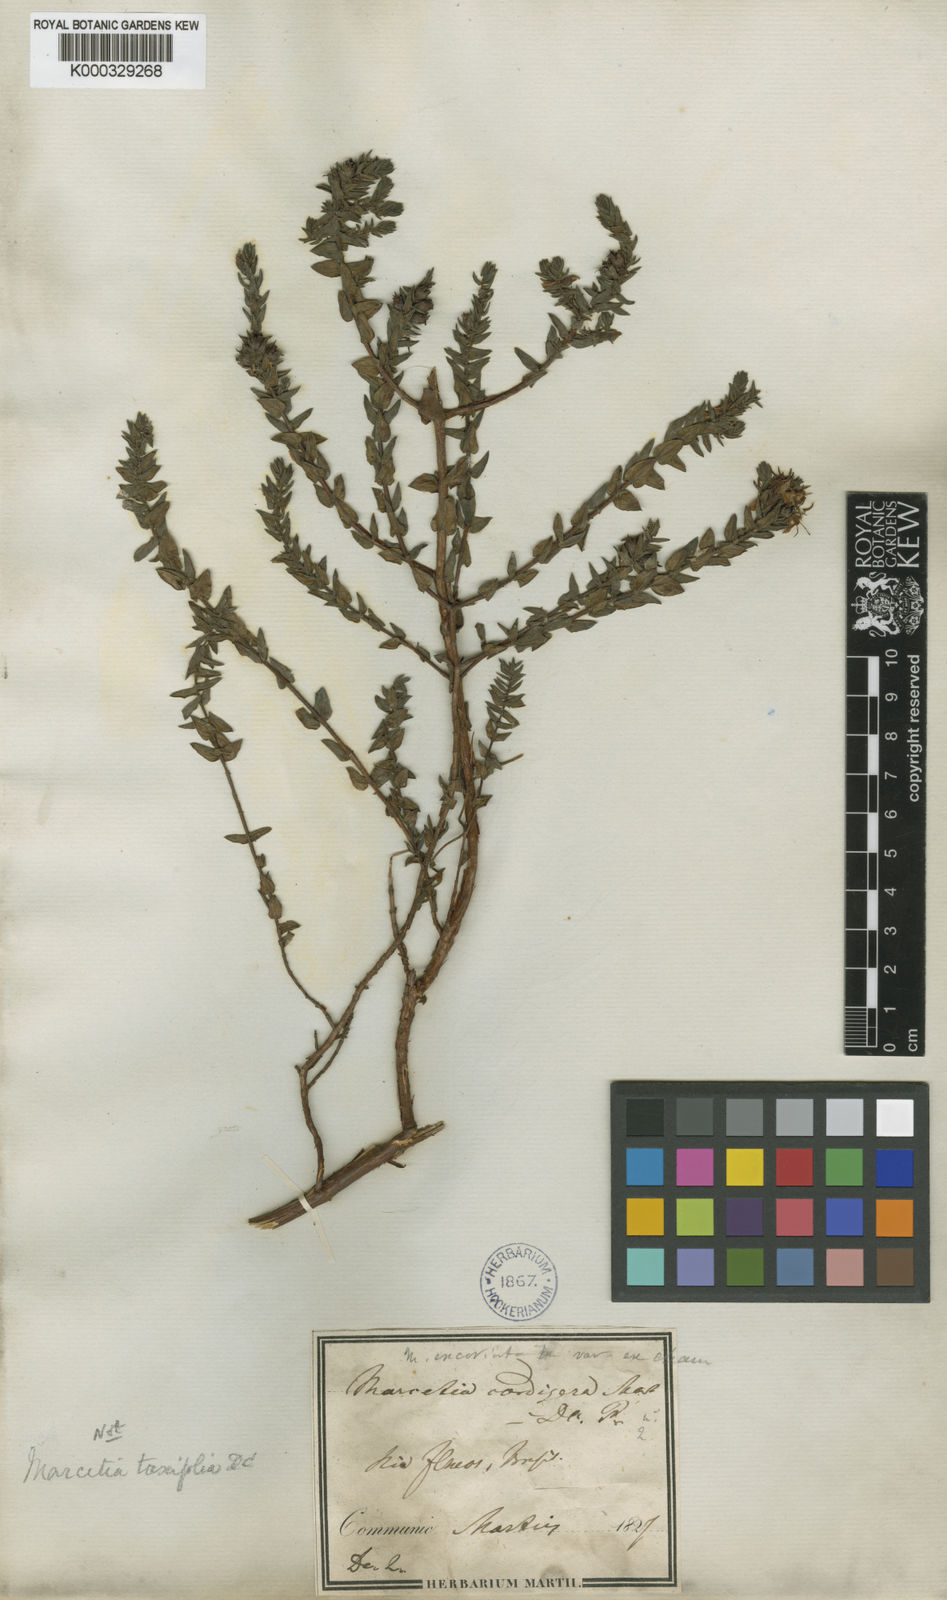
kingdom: Plantae
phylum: Tracheophyta
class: Magnoliopsida
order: Myrtales
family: Melastomataceae
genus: Marcetia
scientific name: Marcetia taxifolia
